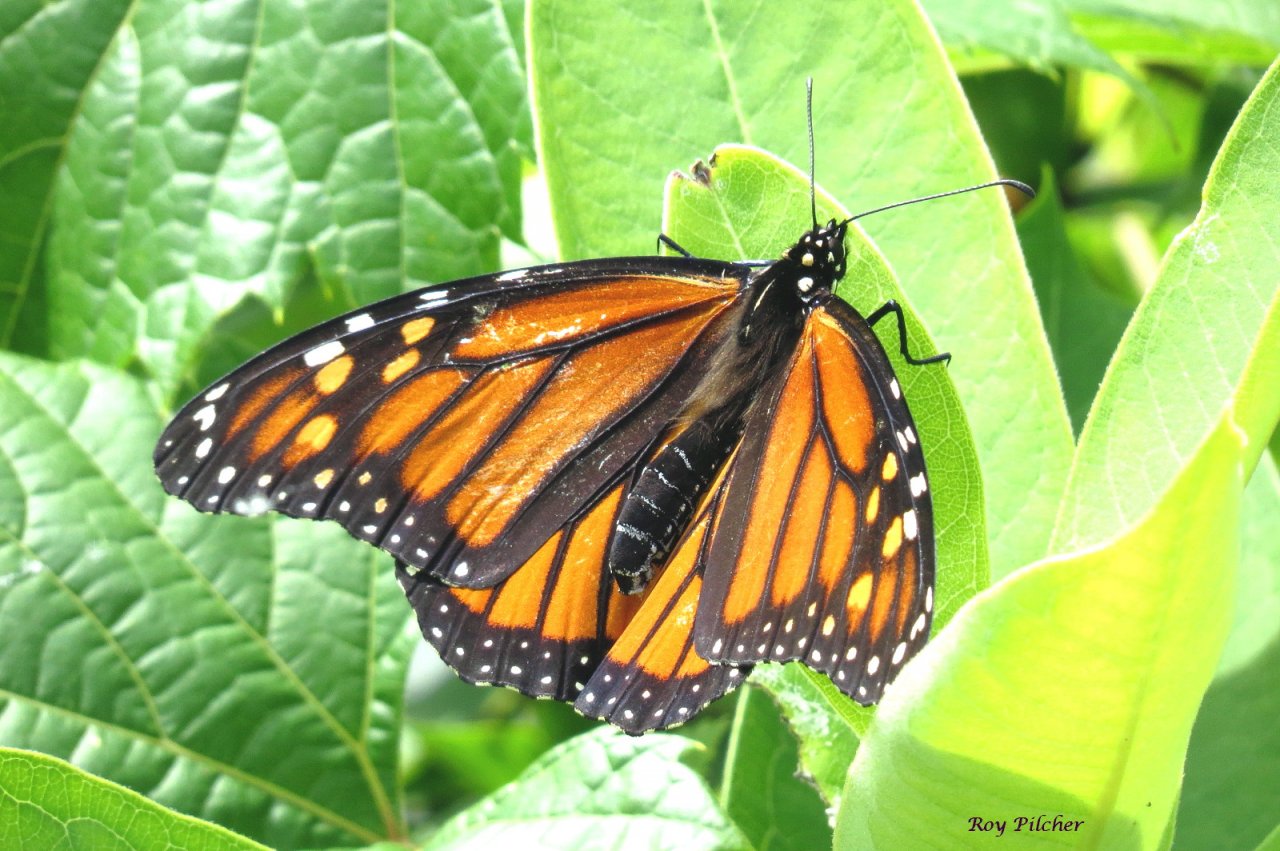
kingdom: Animalia
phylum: Arthropoda
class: Insecta
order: Lepidoptera
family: Nymphalidae
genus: Danaus
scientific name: Danaus plexippus
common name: Monarch
